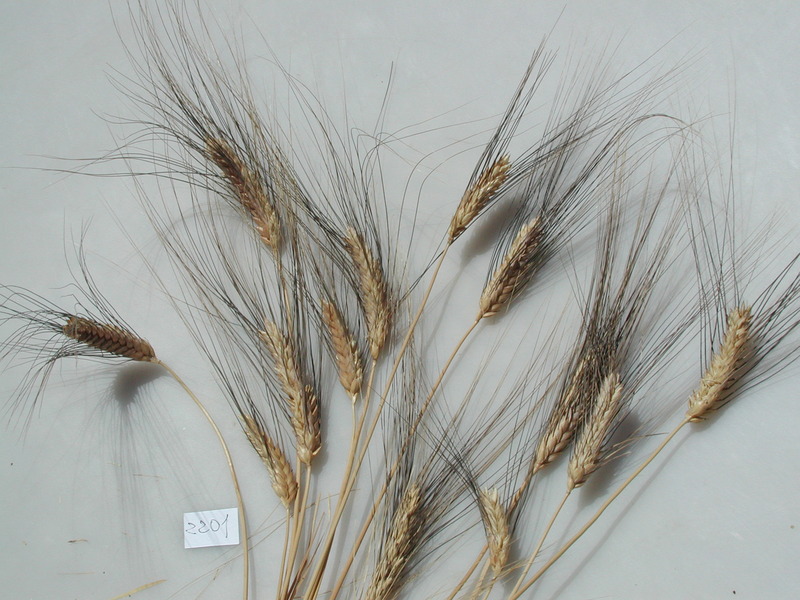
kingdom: Plantae
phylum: Tracheophyta
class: Liliopsida
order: Poales
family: Poaceae
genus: Triticum
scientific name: Triticum turgidum
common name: Wheat
